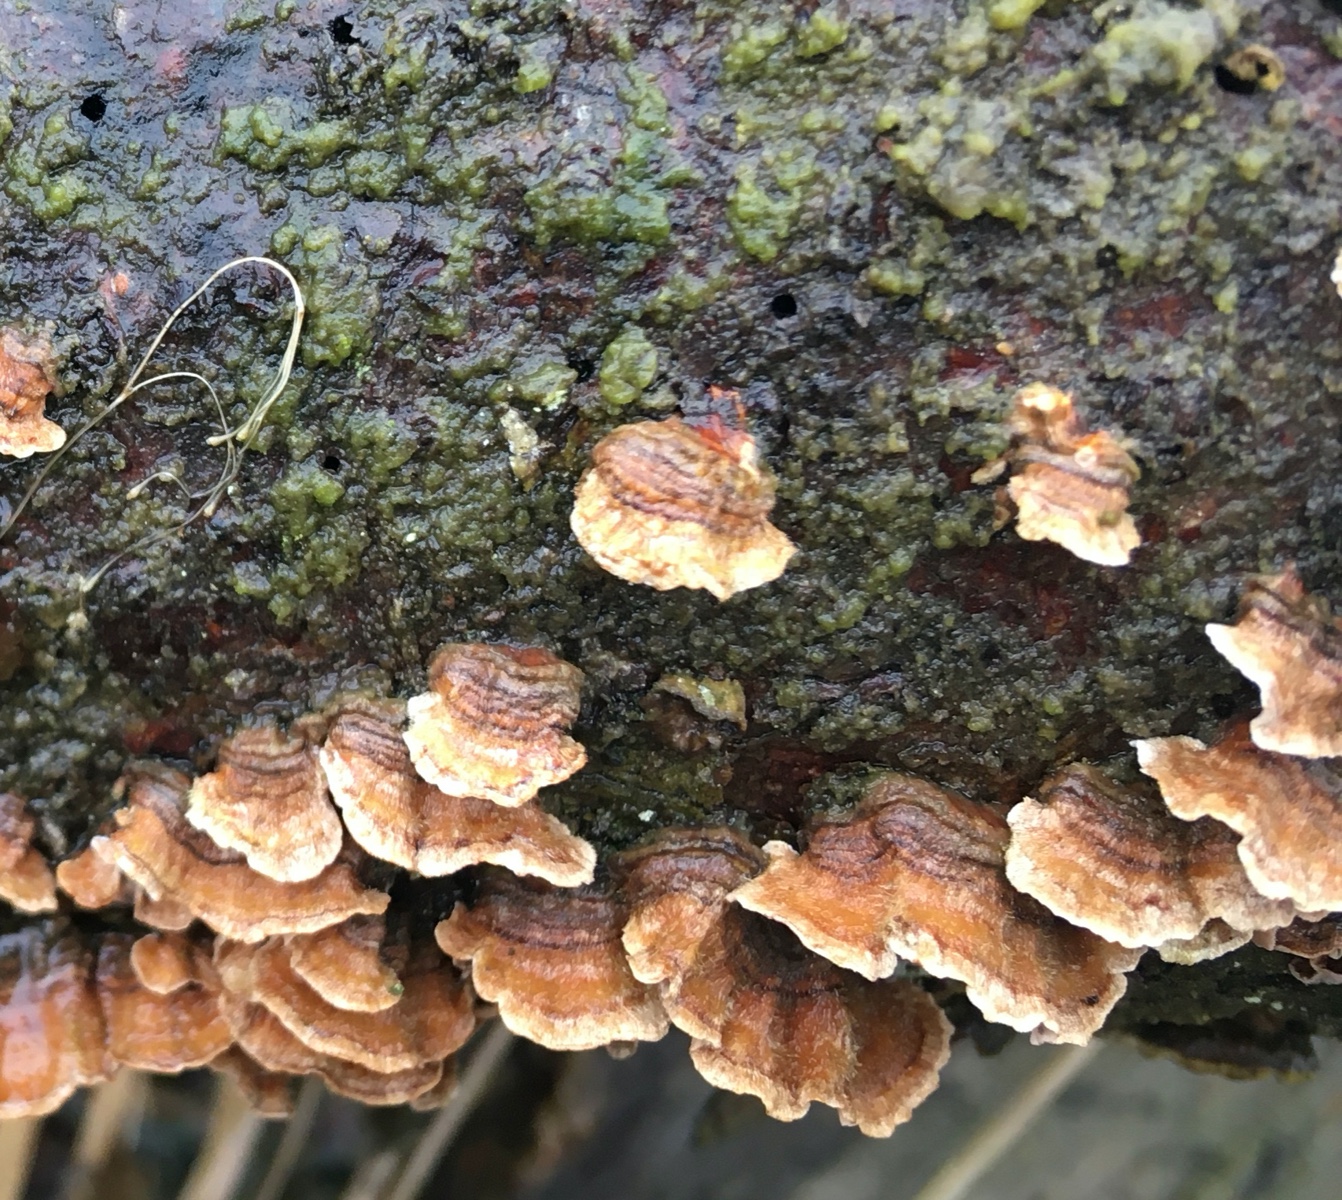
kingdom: Fungi
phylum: Basidiomycota
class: Agaricomycetes
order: Russulales
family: Stereaceae
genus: Stereum
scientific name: Stereum sanguinolentum
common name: blødende lædersvamp
